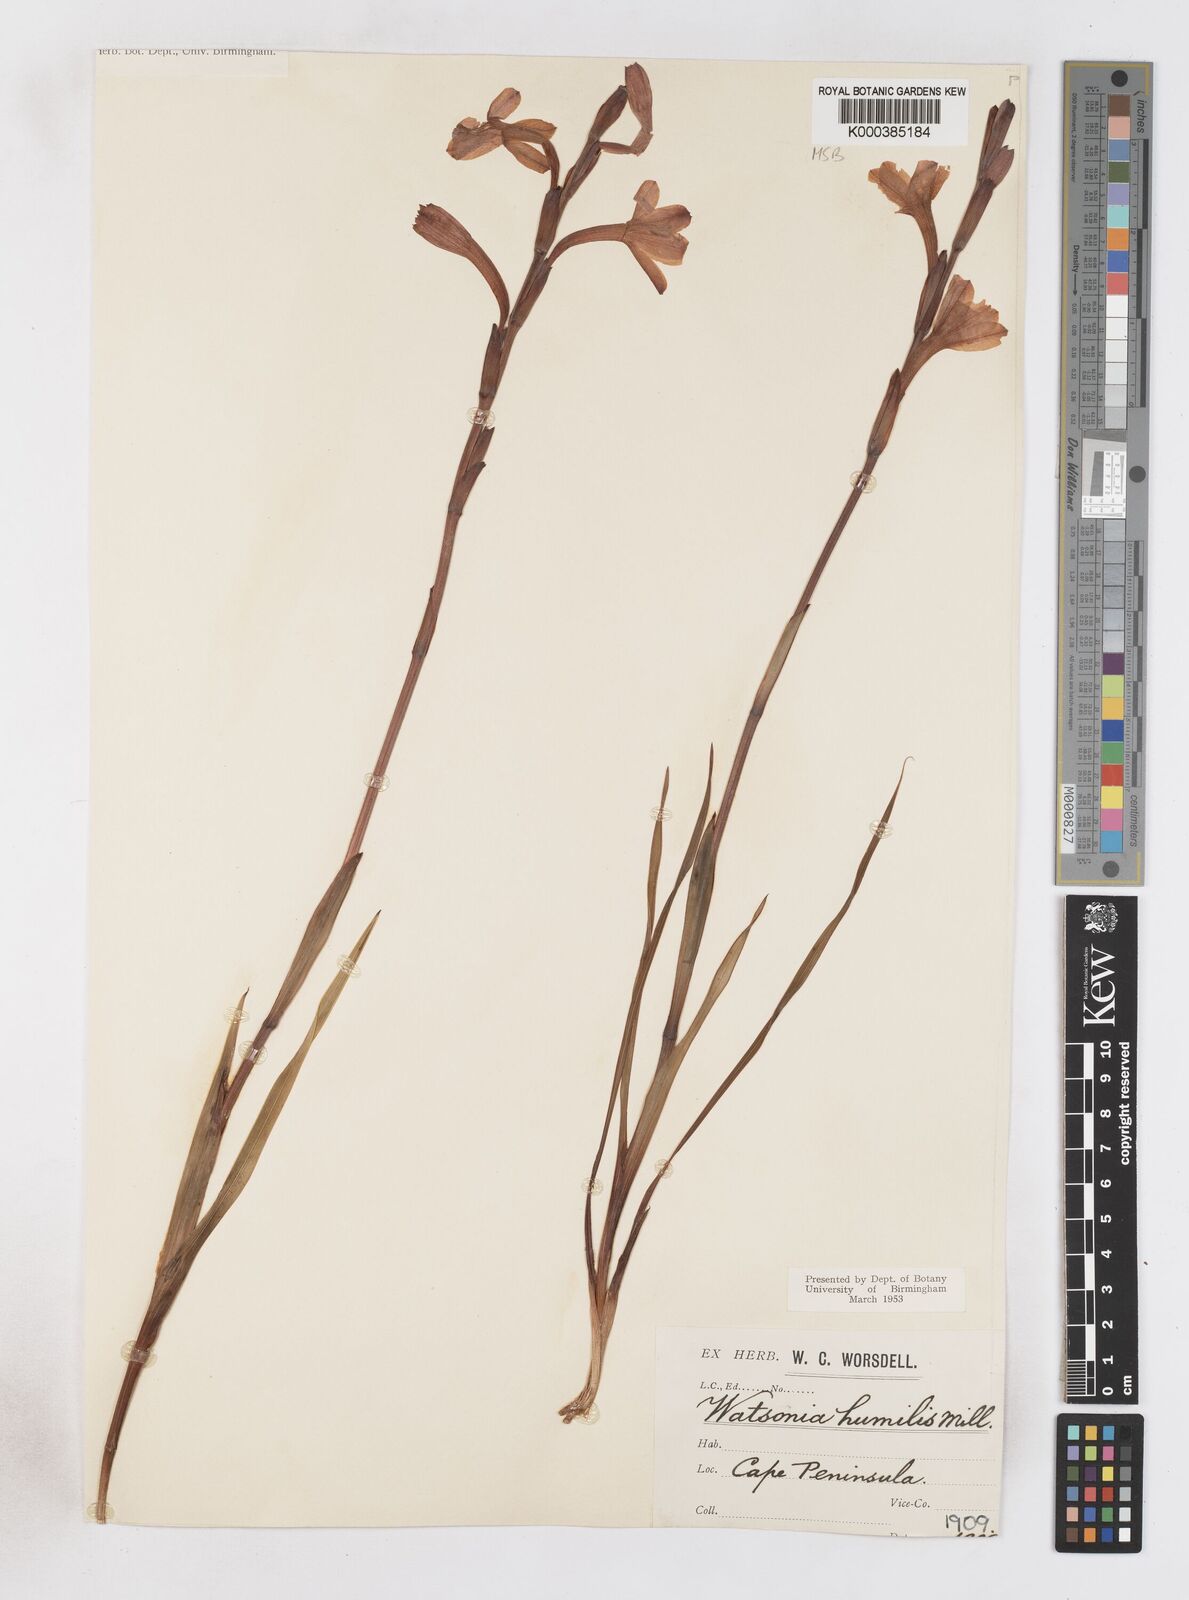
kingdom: Plantae
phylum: Tracheophyta
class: Liliopsida
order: Asparagales
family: Iridaceae
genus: Watsonia
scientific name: Watsonia humilis
